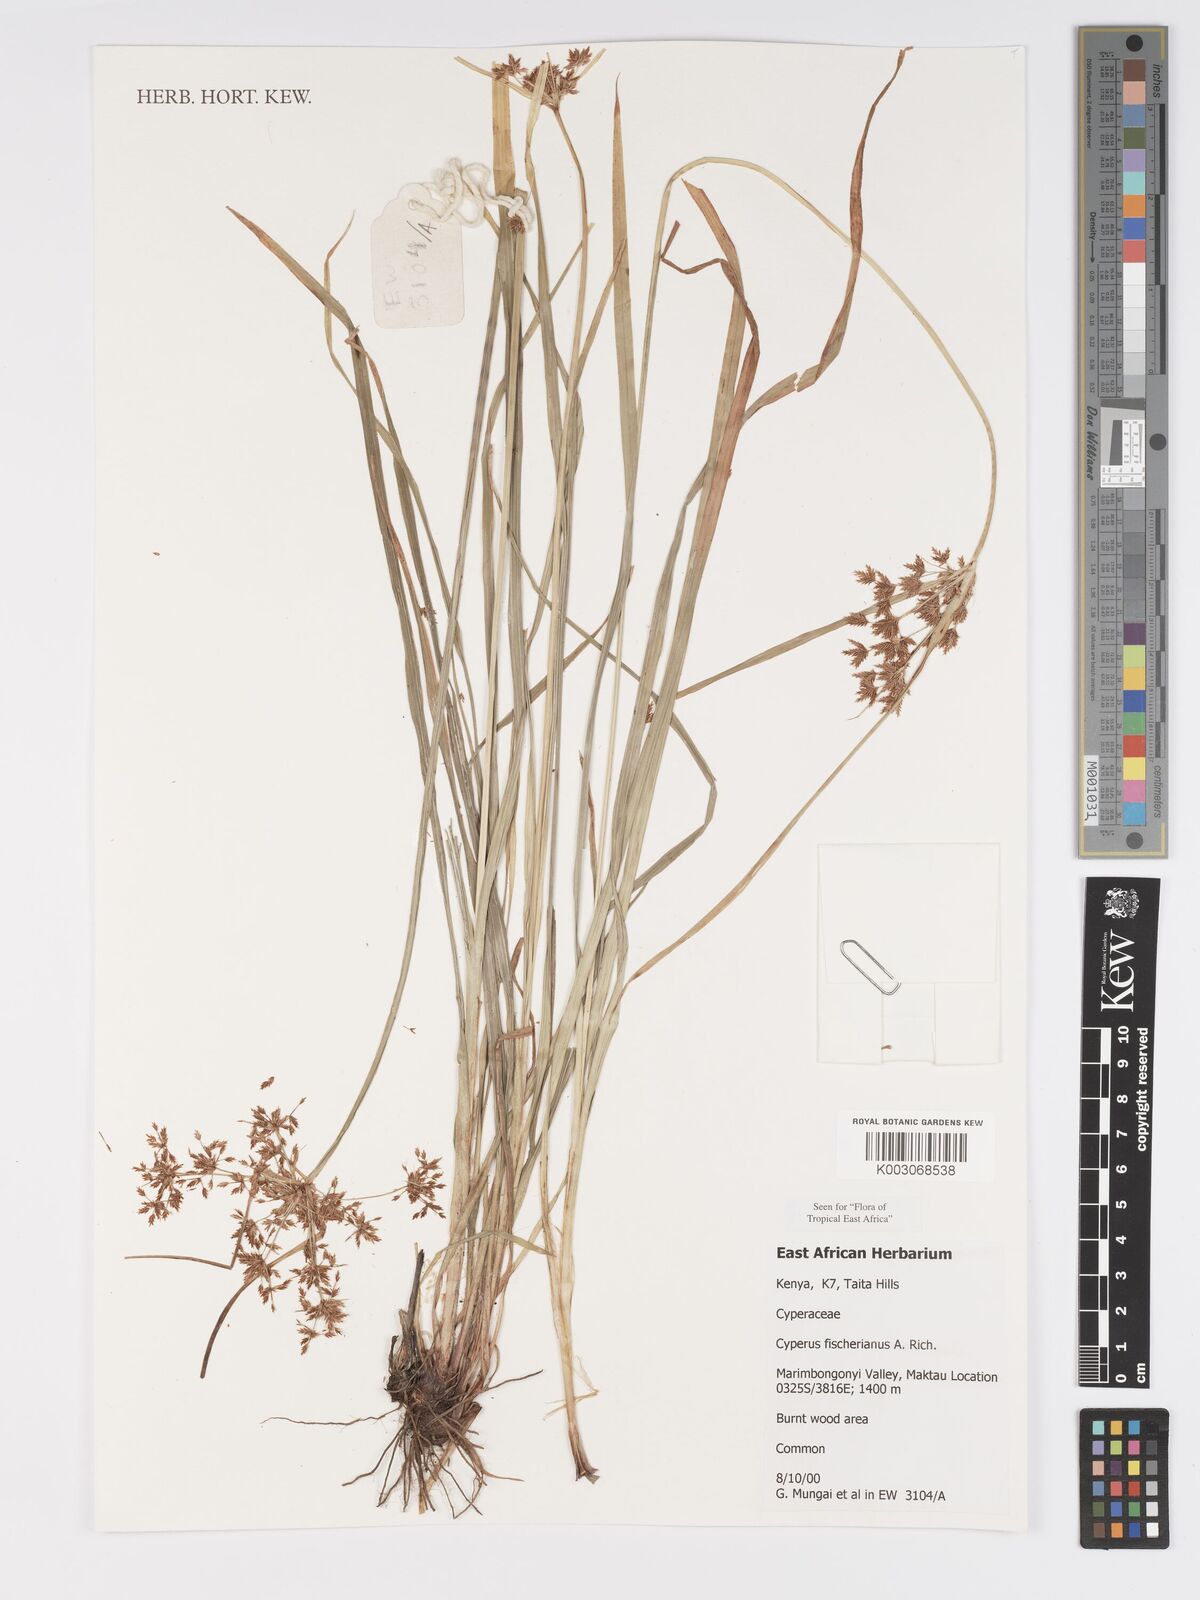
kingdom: Plantae
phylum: Tracheophyta
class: Liliopsida
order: Poales
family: Cyperaceae
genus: Cyperus
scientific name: Cyperus fischerianus
